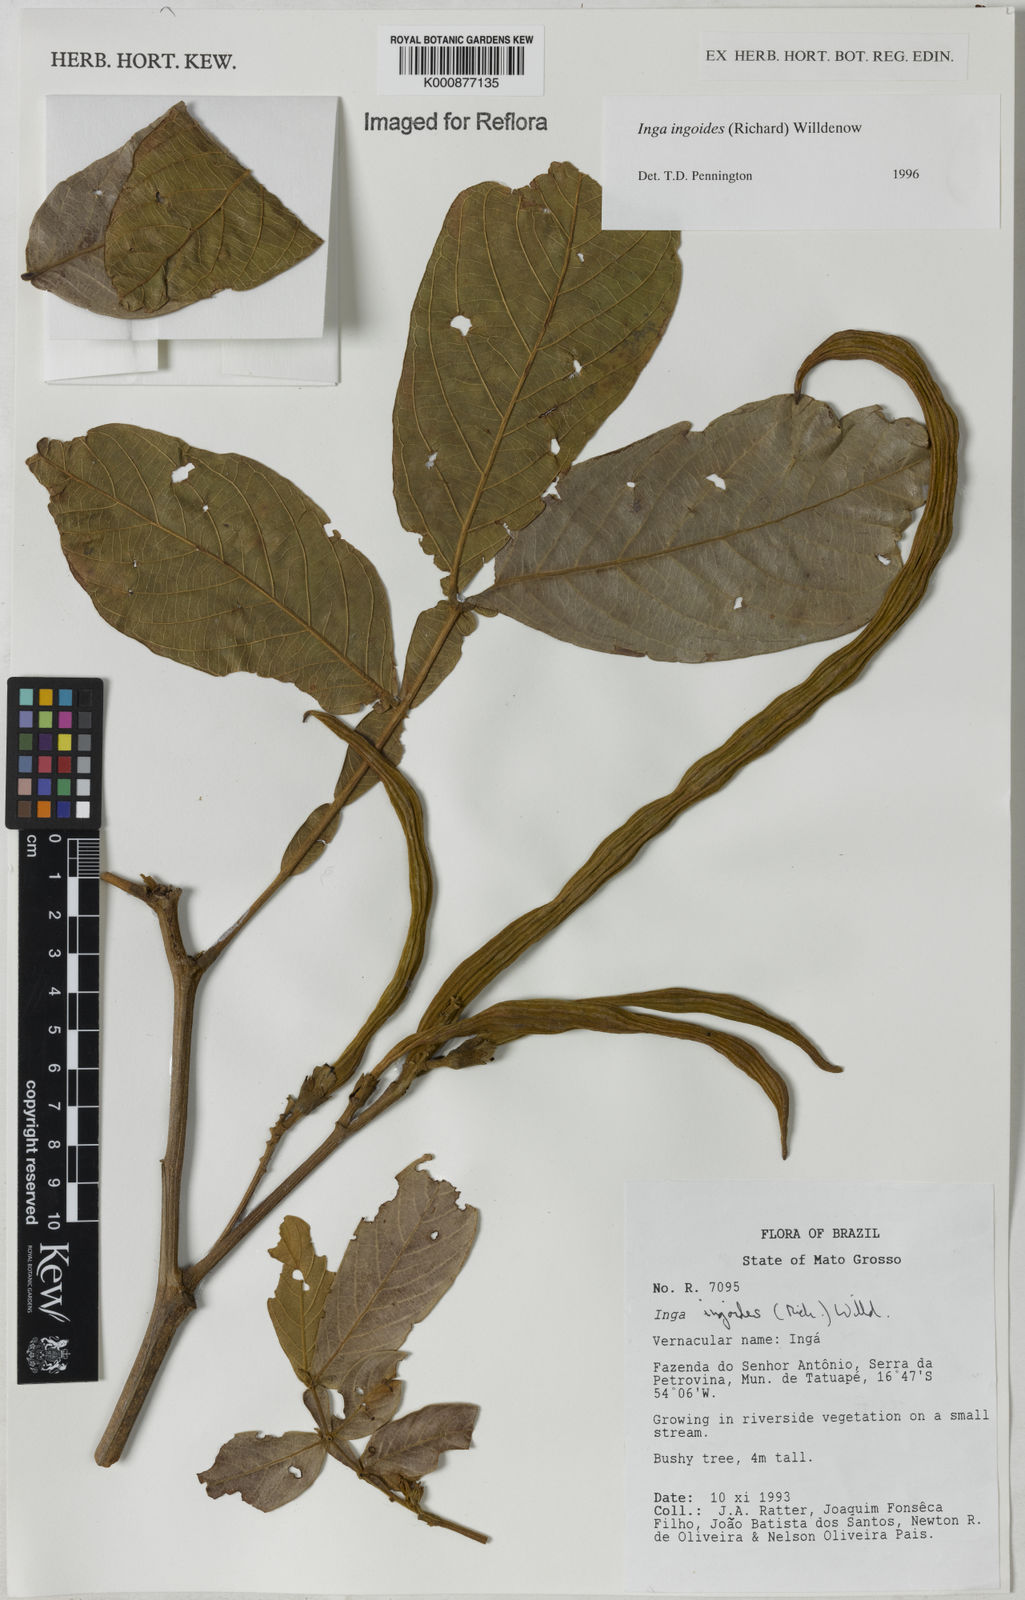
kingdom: Plantae
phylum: Tracheophyta
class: Magnoliopsida
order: Fabales
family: Fabaceae
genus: Inga
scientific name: Inga ingoides
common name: Spanish ash
